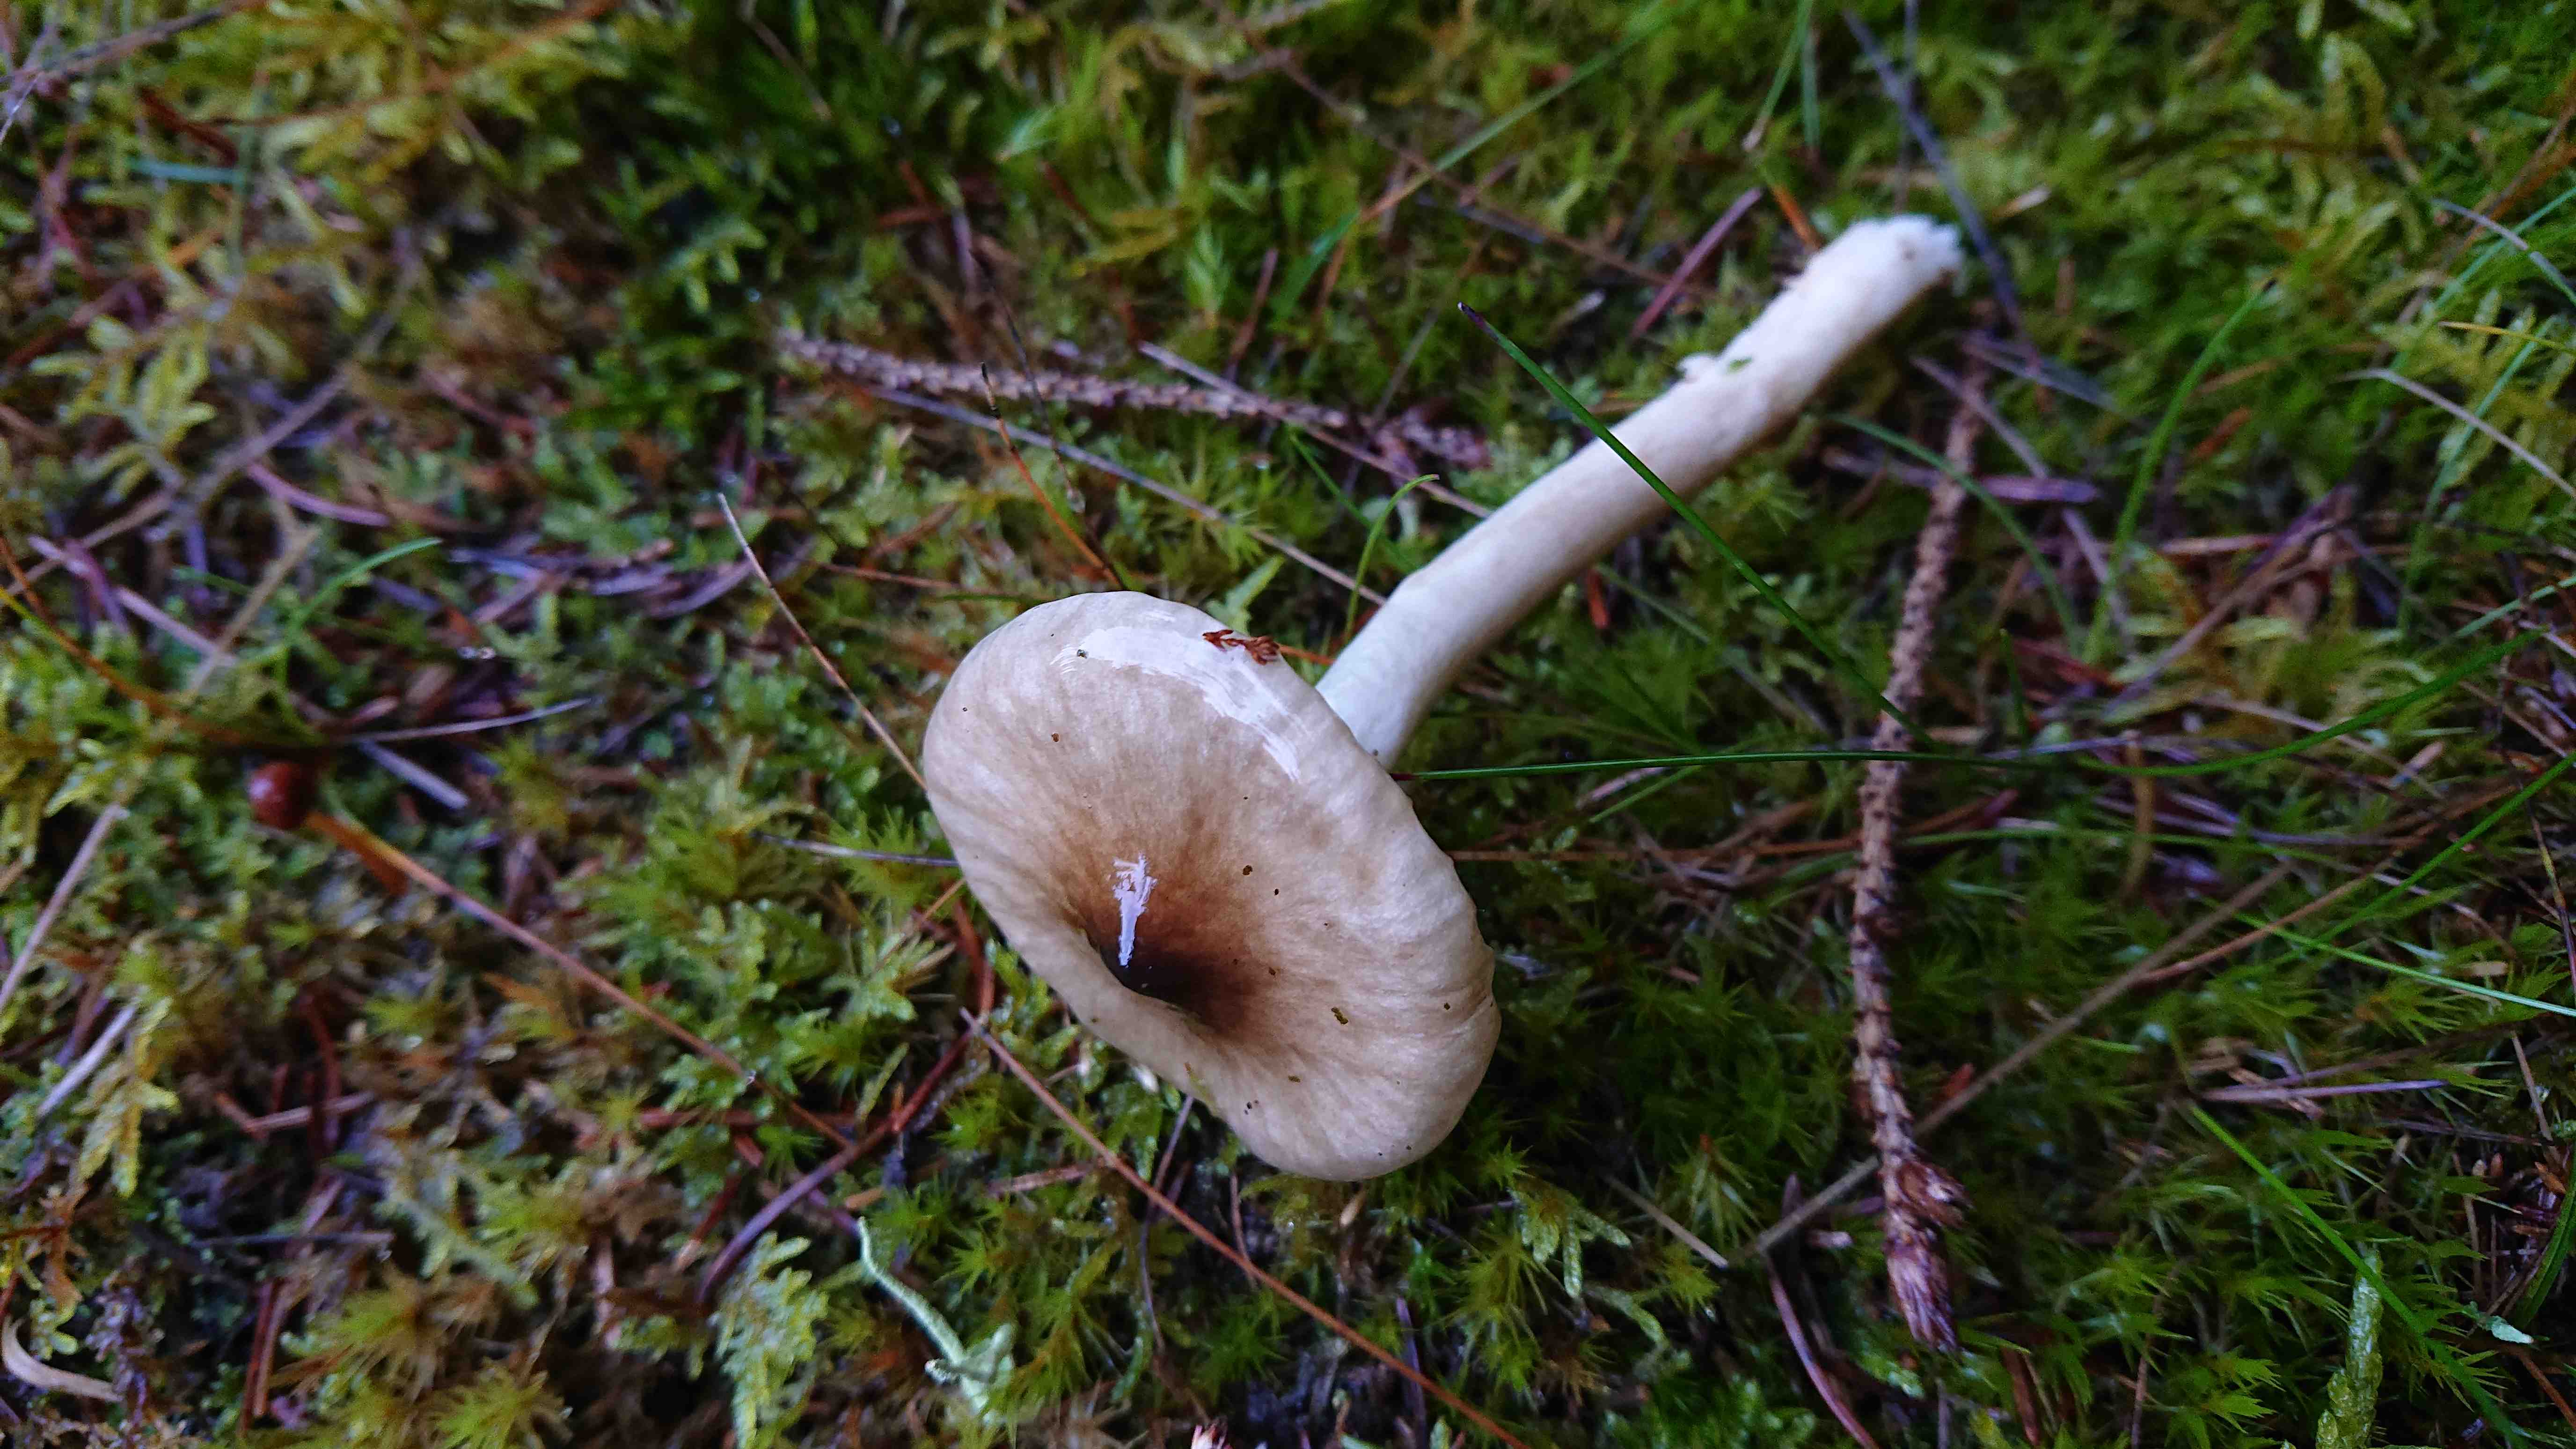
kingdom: Fungi
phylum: Basidiomycota
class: Agaricomycetes
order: Agaricales
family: Hygrophoraceae
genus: Hygrophorus
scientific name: Hygrophorus olivaceoalbus
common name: hvidbrun sneglehat
